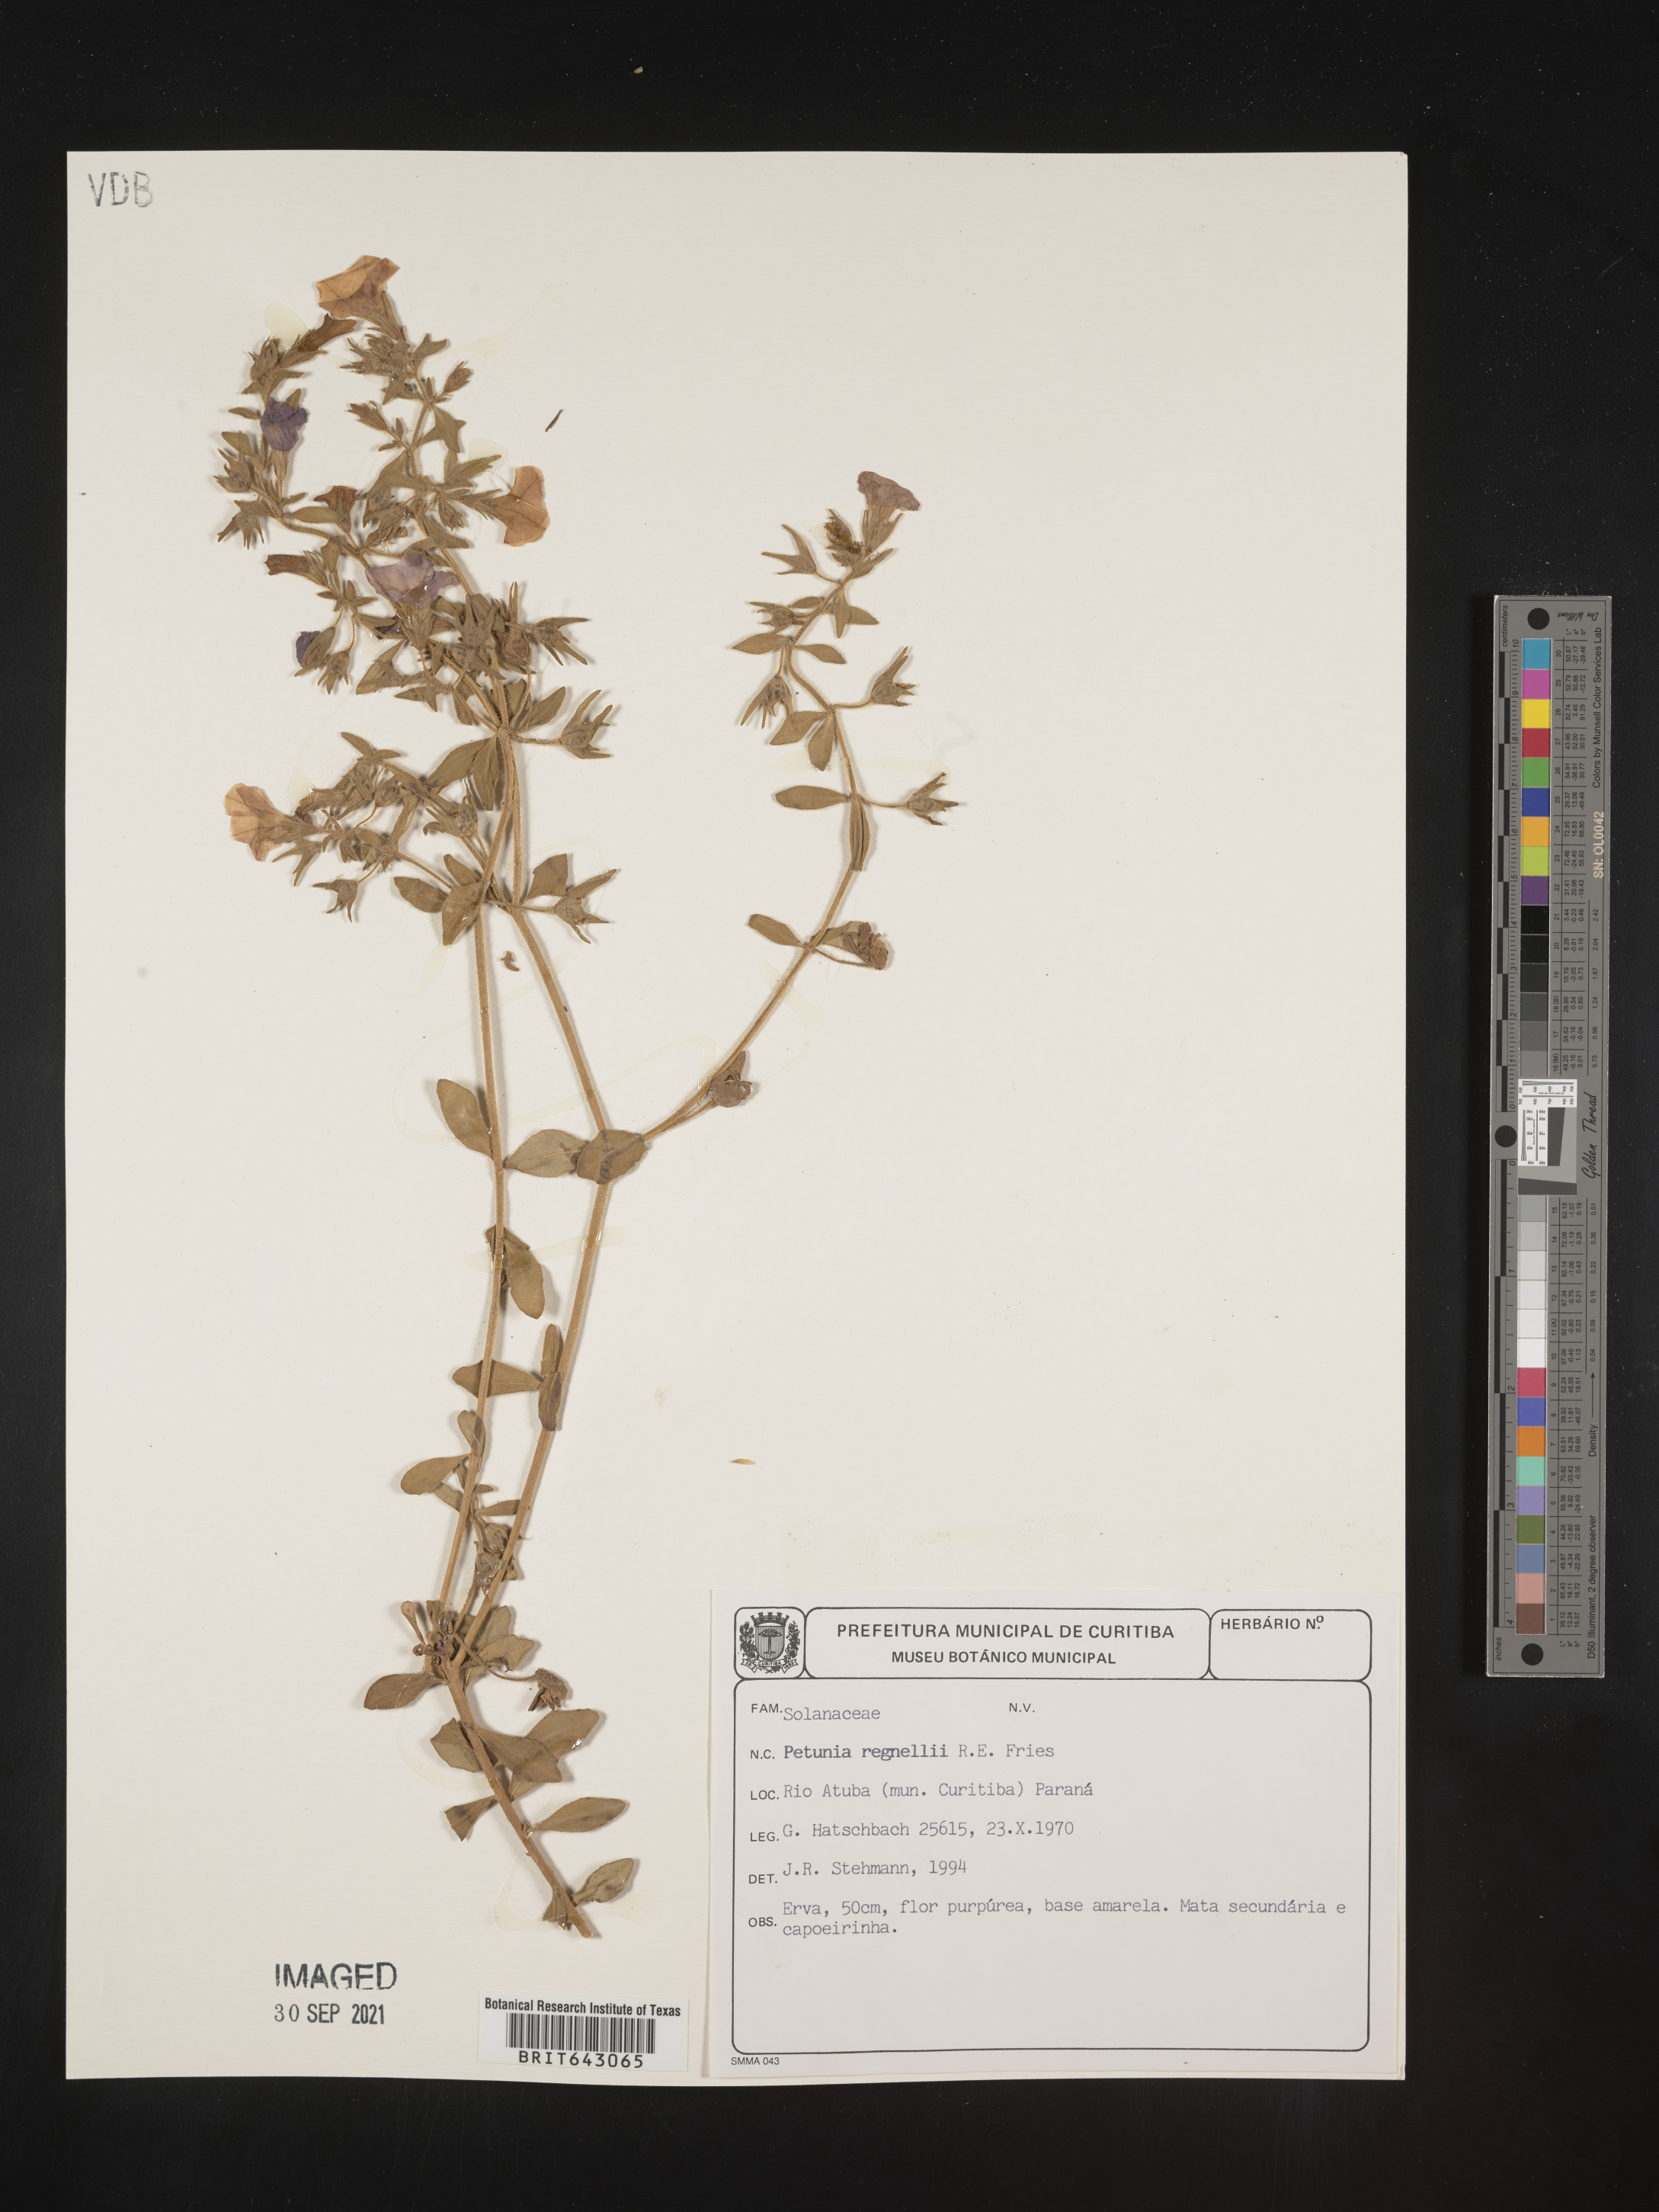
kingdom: Plantae
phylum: Tracheophyta
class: Magnoliopsida
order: Solanales
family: Solanaceae
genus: Petunia
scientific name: Petunia
